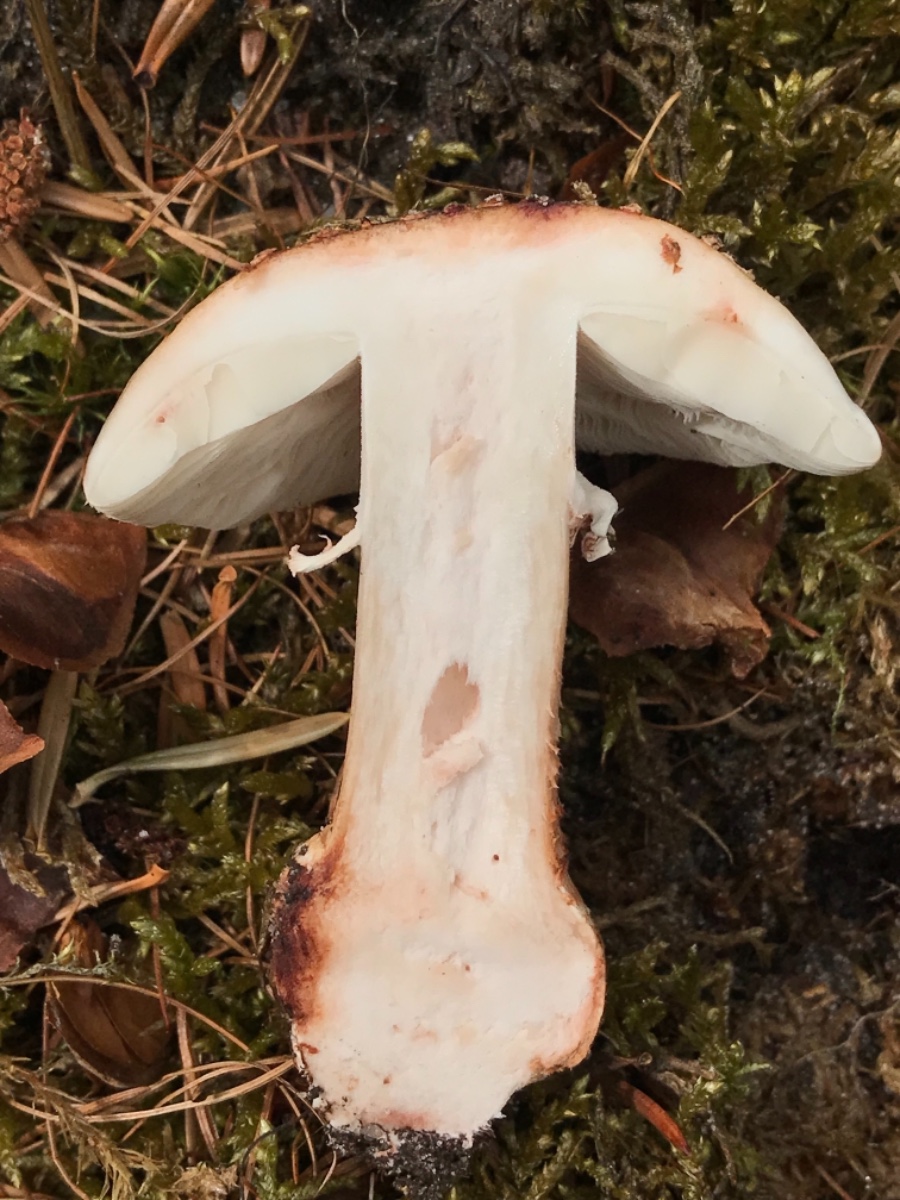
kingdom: Fungi
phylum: Basidiomycota
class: Agaricomycetes
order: Agaricales
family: Amanitaceae
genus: Amanita
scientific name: Amanita rubescens
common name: rødmende fluesvamp
